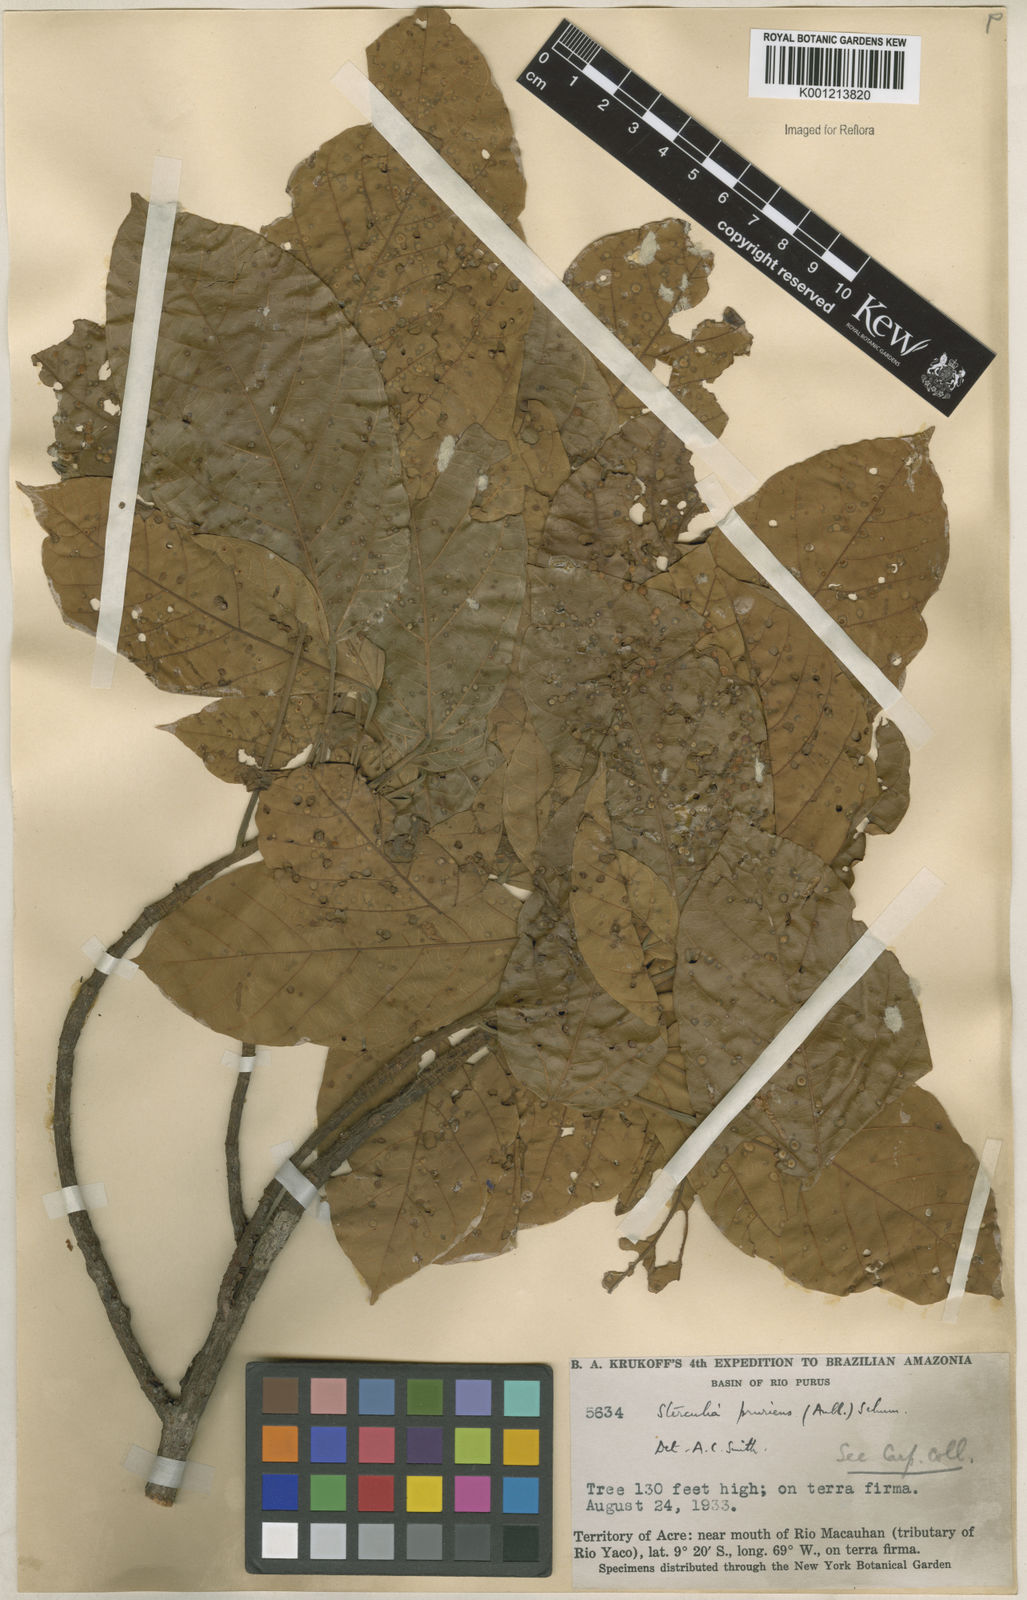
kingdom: Plantae
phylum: Tracheophyta
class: Magnoliopsida
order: Malvales
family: Malvaceae
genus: Sterculia
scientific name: Sterculia pruriens
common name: Grand mahot
